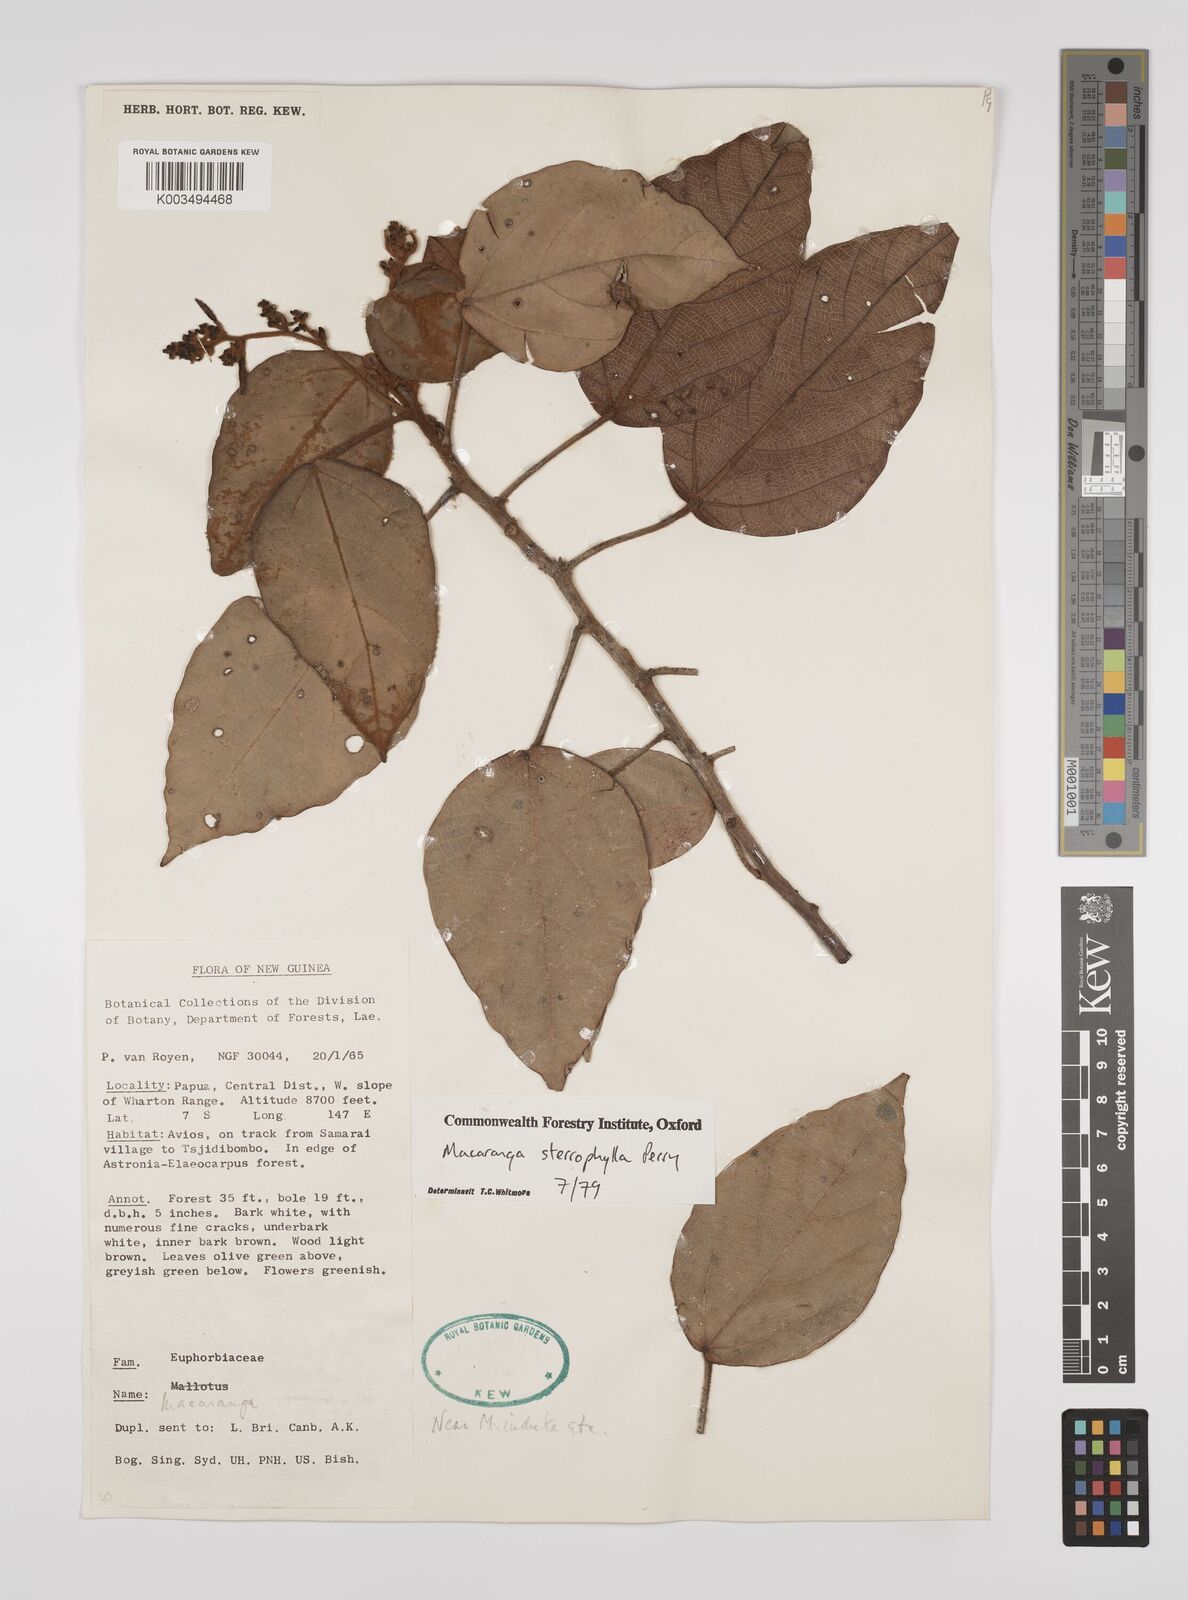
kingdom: Plantae
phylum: Tracheophyta
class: Magnoliopsida
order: Malpighiales
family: Euphorbiaceae
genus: Macaranga
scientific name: Macaranga stenophylla
